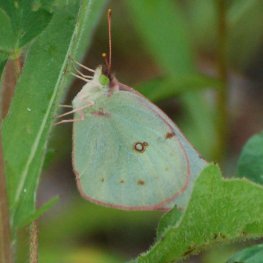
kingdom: Animalia
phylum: Arthropoda
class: Insecta
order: Lepidoptera
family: Pieridae
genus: Colias
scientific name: Colias philodice
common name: Clouded Sulphur
